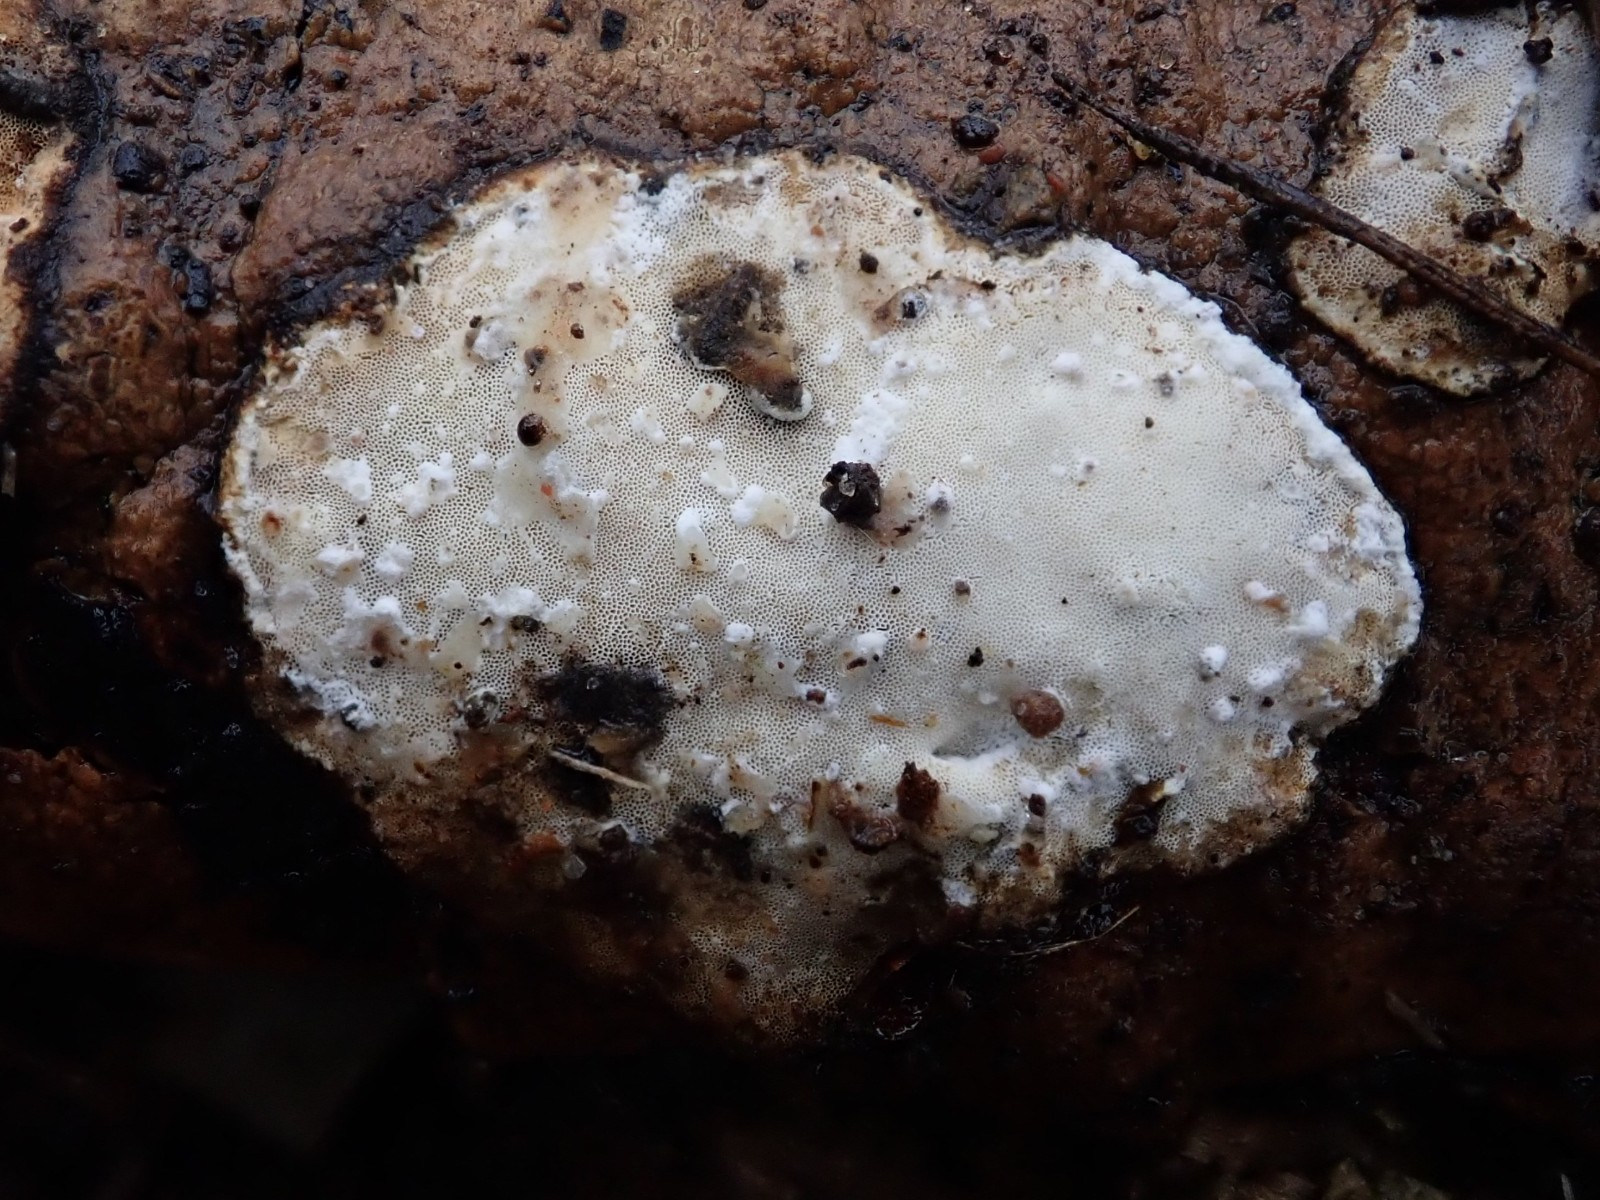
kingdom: Fungi
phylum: Basidiomycota
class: Agaricomycetes
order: Polyporales
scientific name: Polyporales
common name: poresvampordenen
